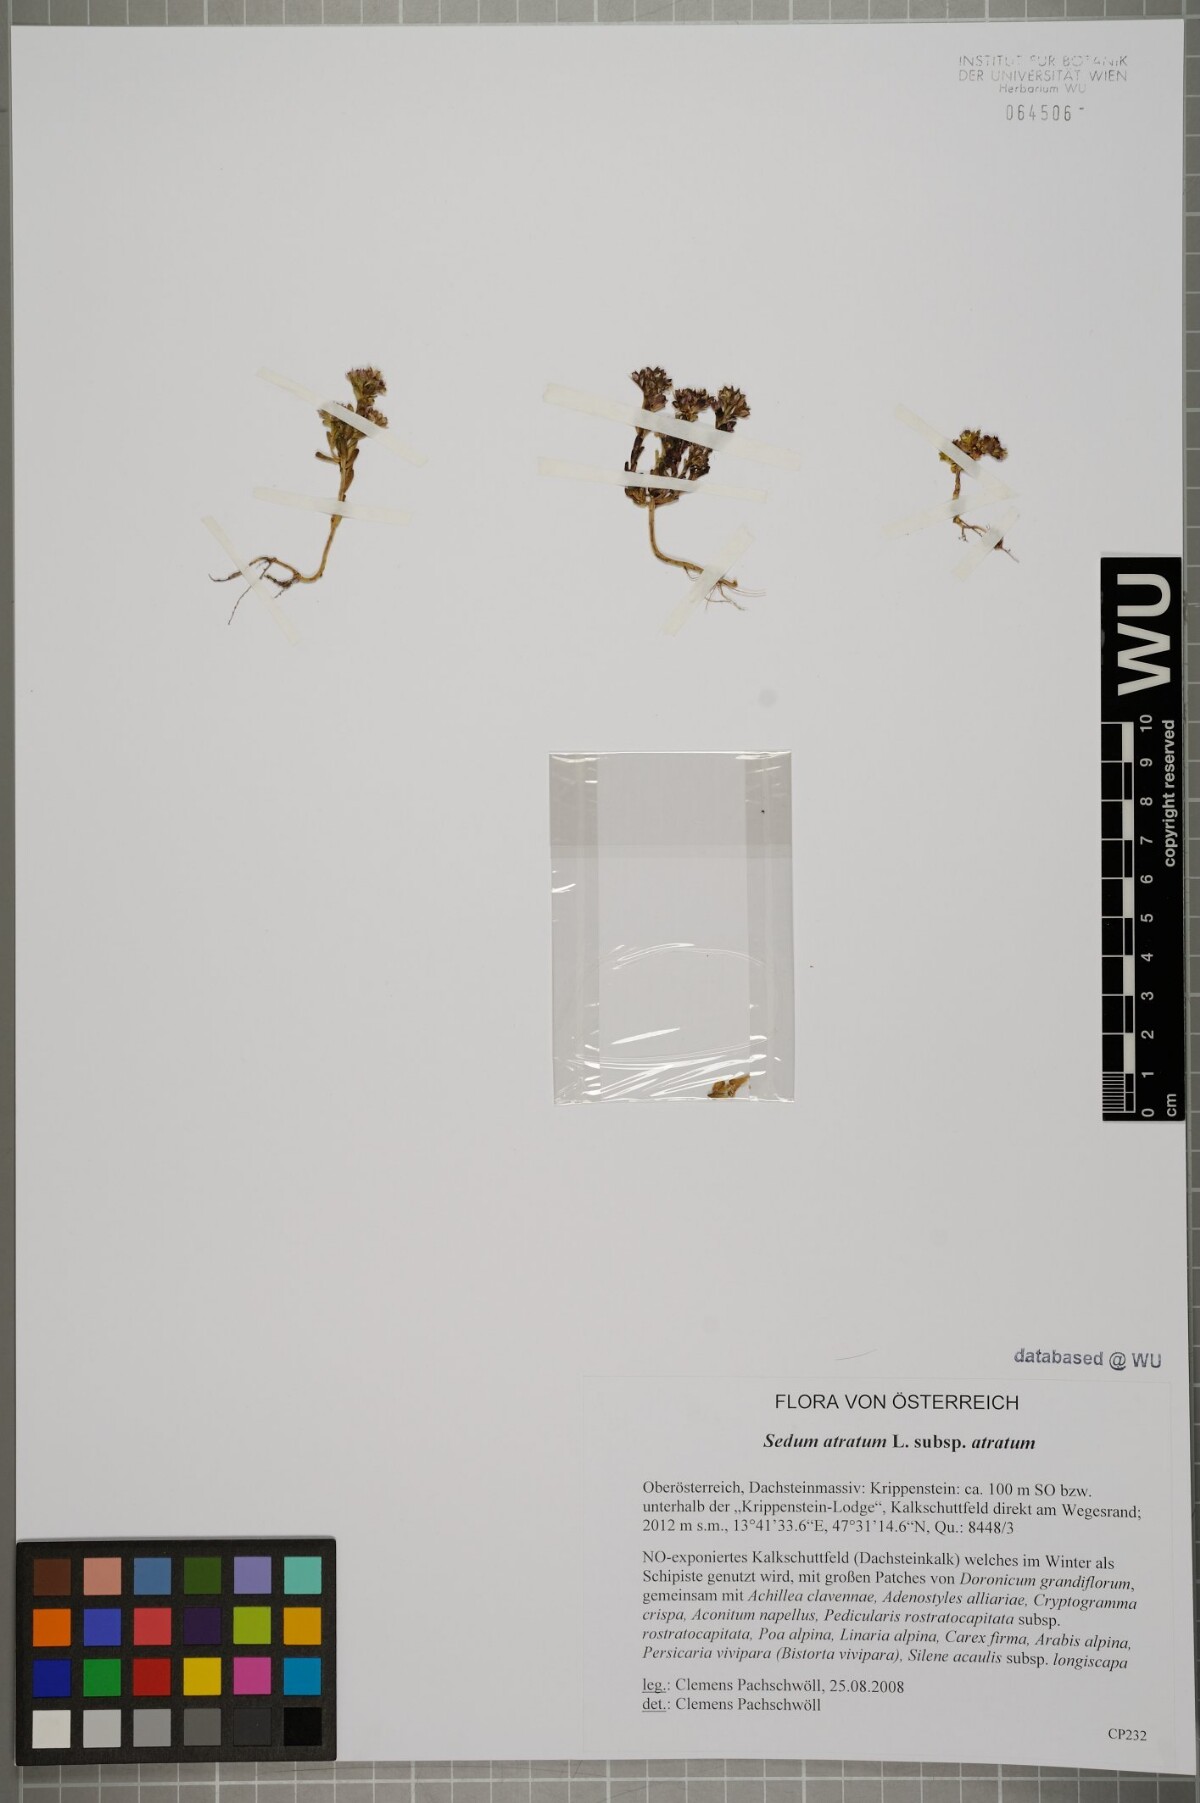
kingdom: Plantae
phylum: Tracheophyta
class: Magnoliopsida
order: Saxifragales
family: Crassulaceae
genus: Sedum
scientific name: Sedum atratum
